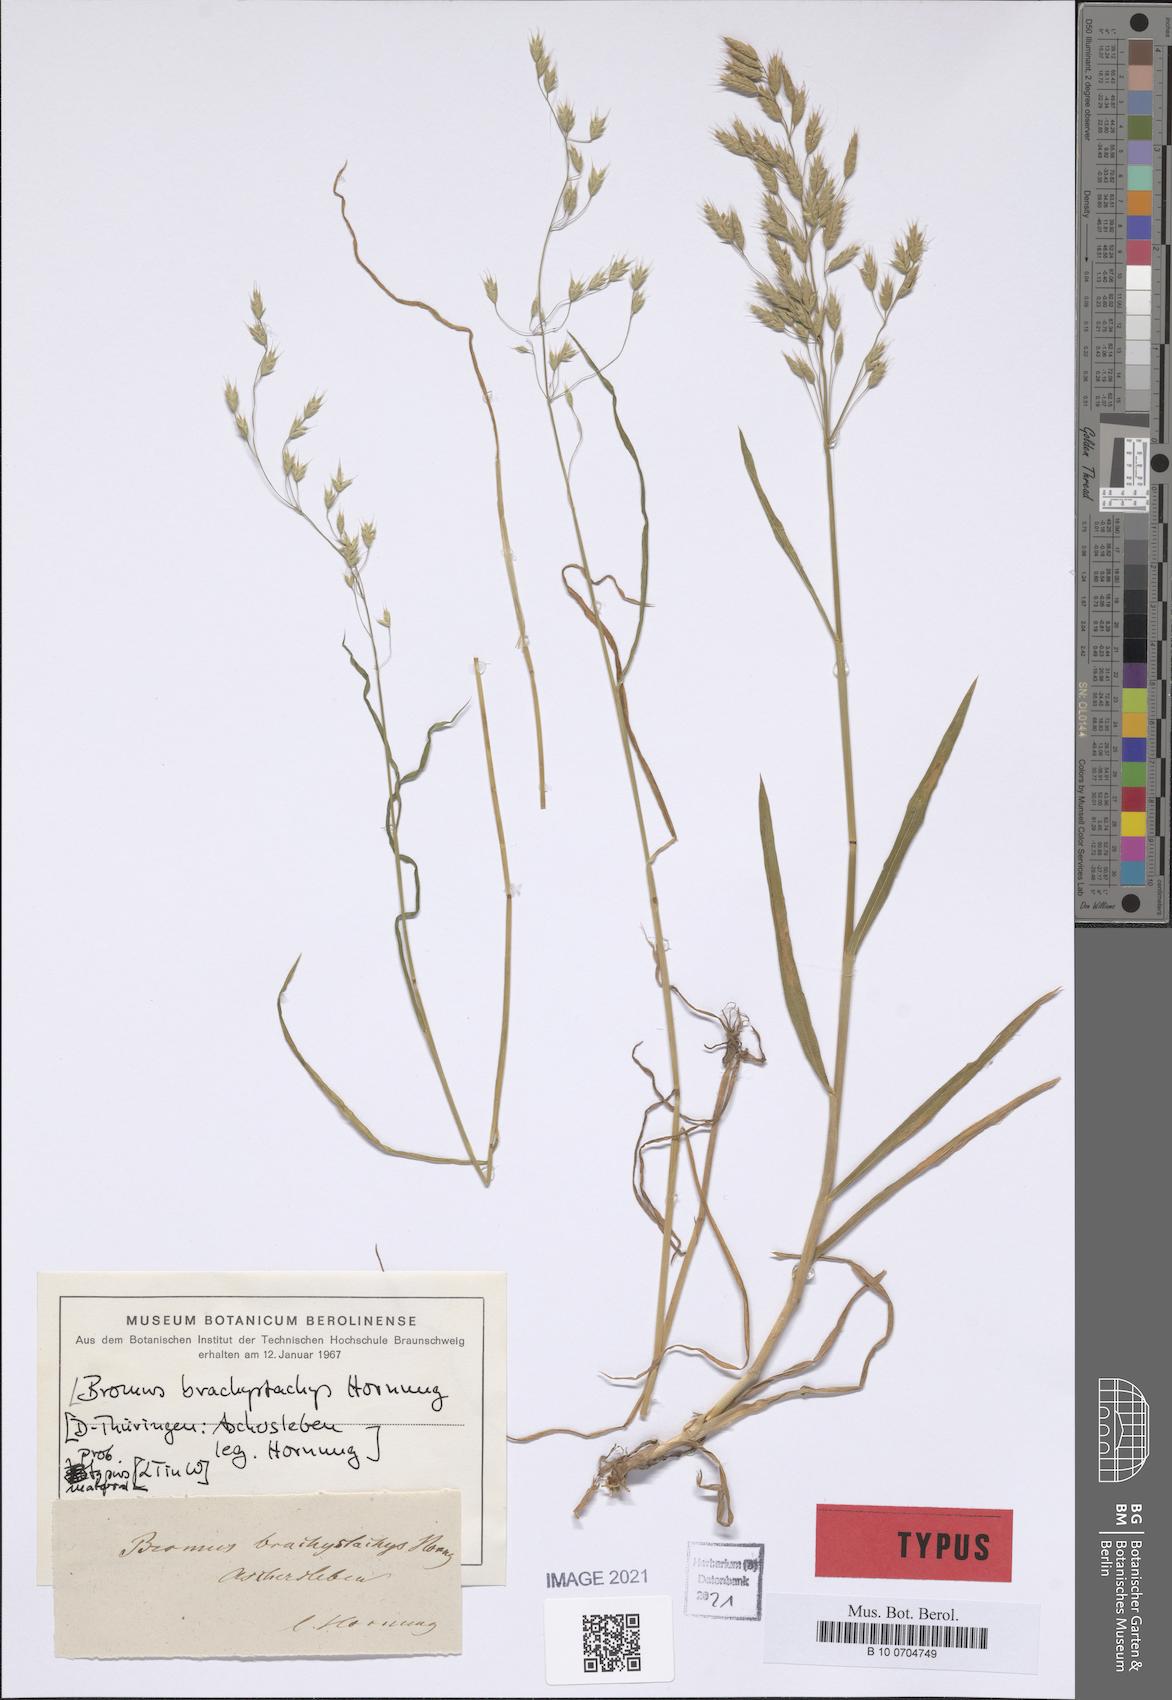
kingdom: Plantae
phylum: Tracheophyta
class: Liliopsida
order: Poales
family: Poaceae
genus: Bromus
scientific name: Bromus brachystachys
